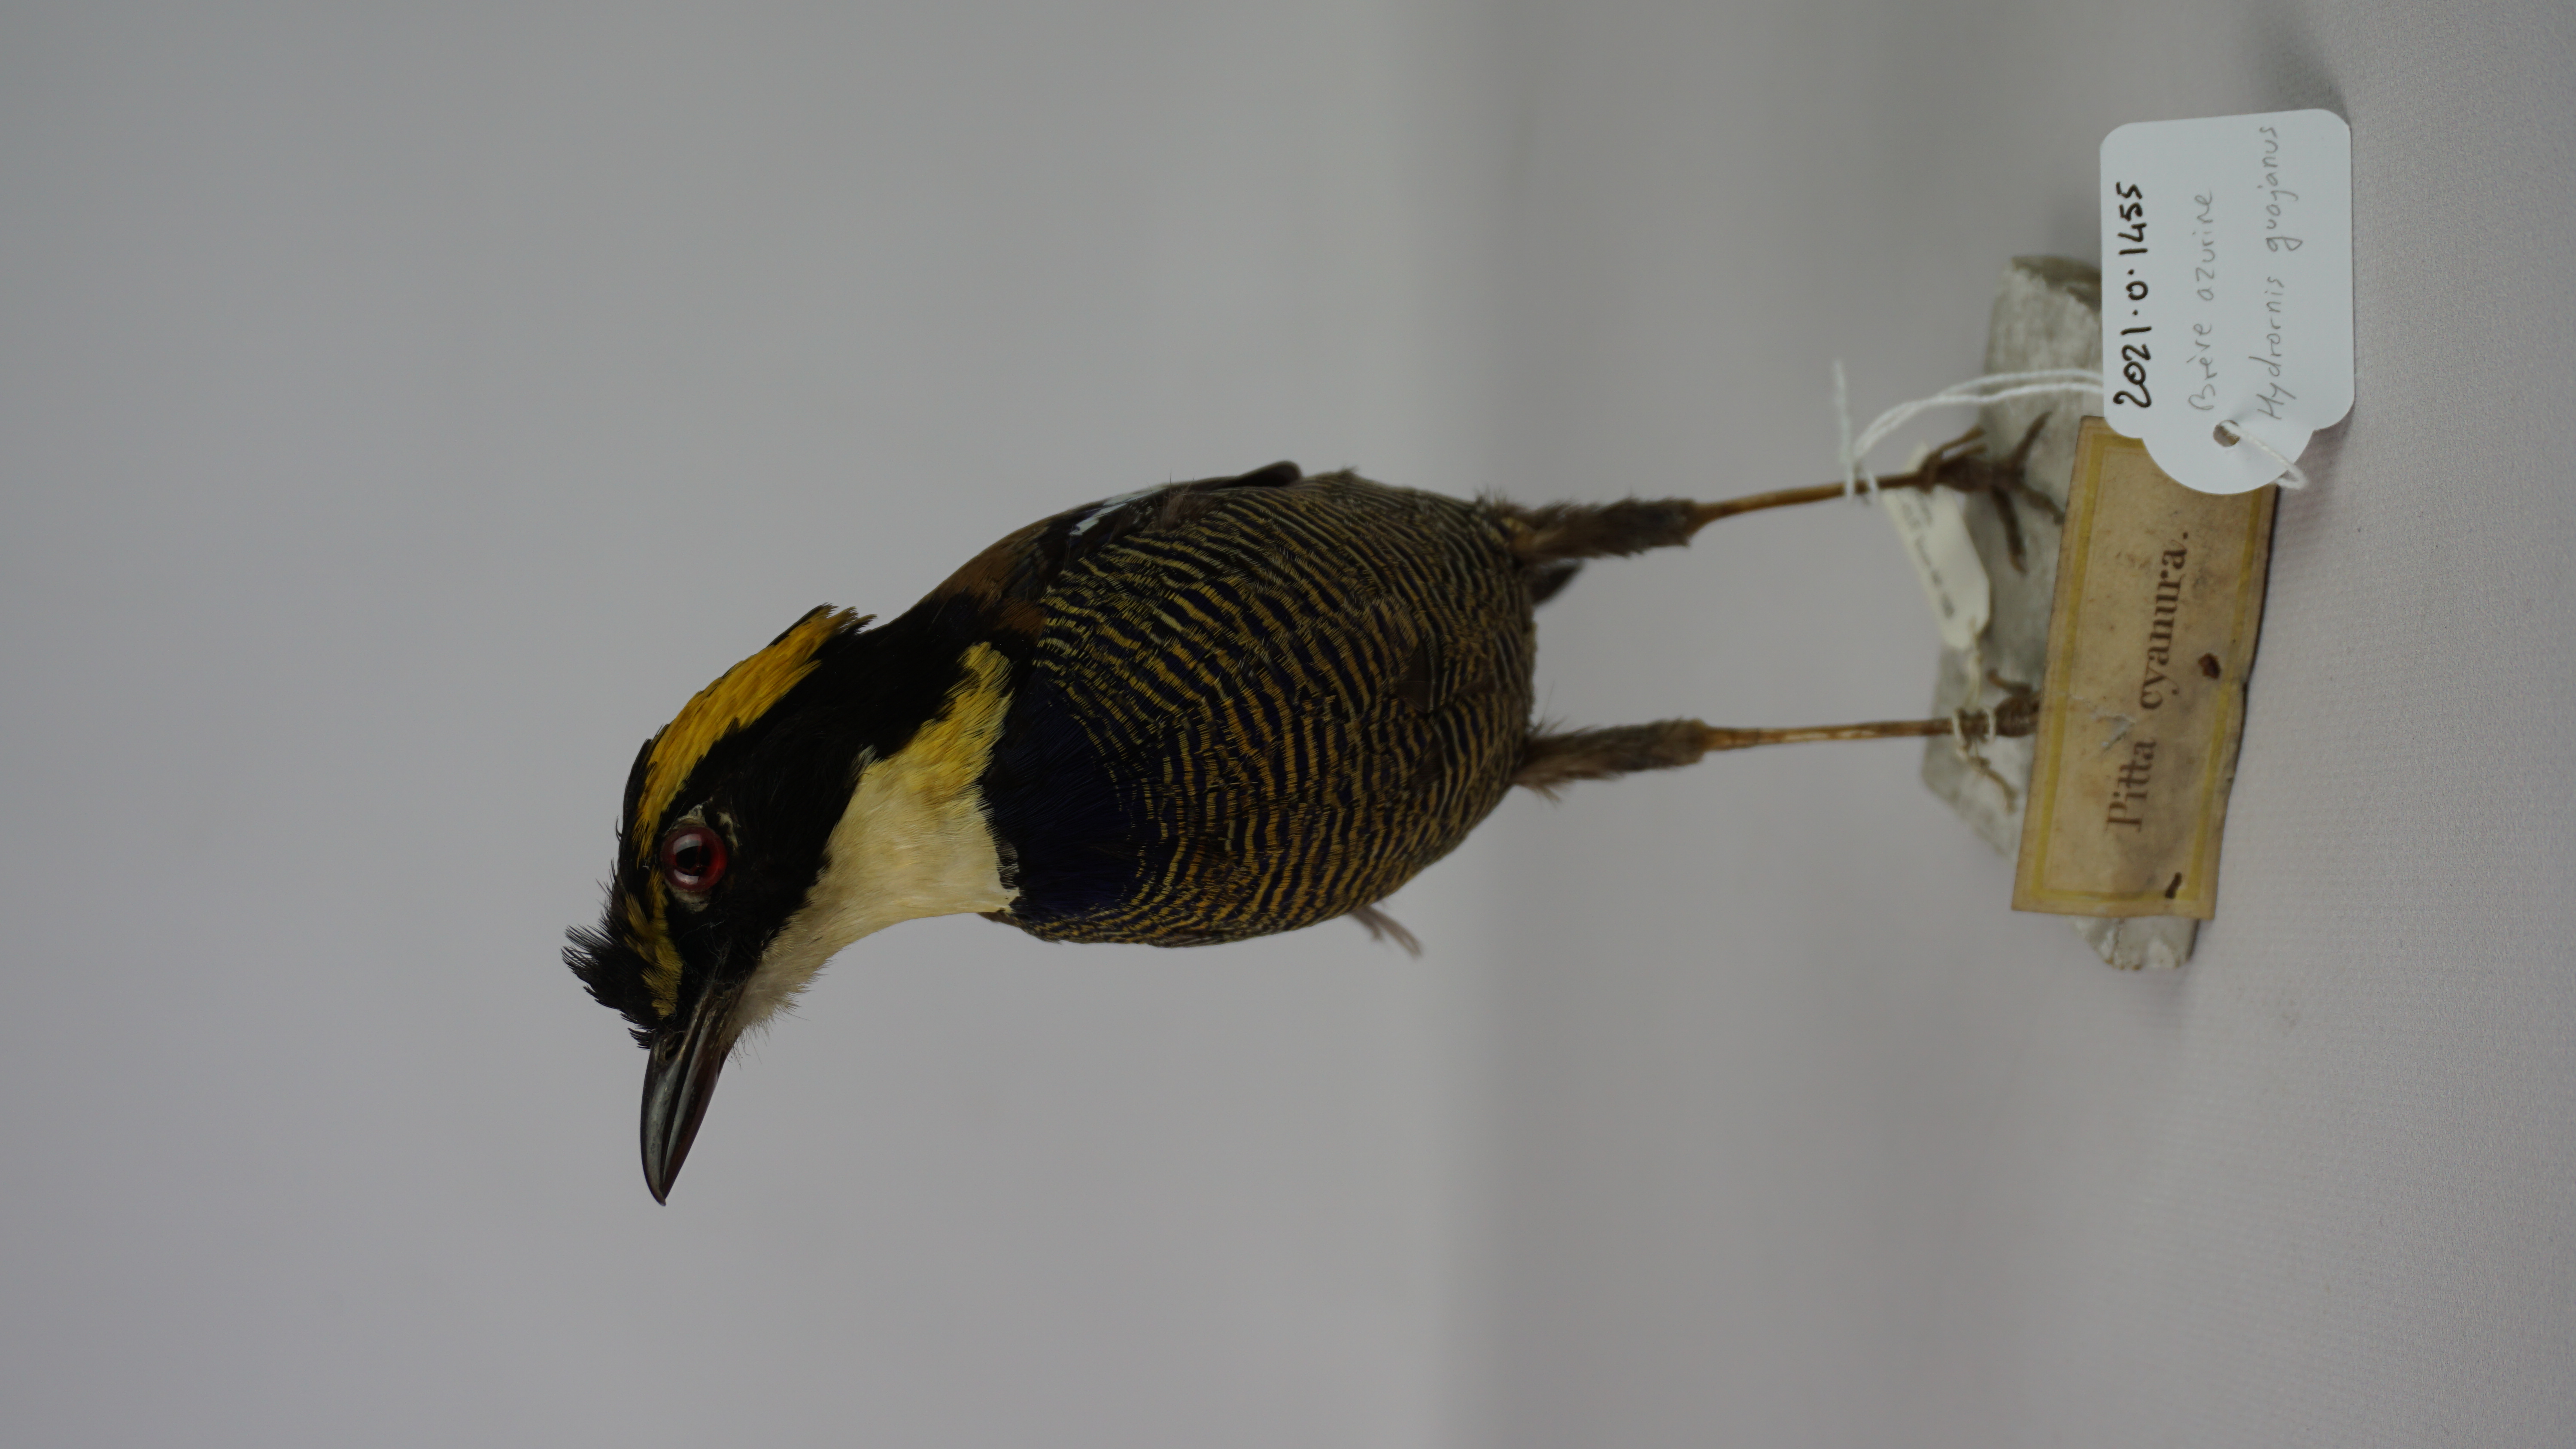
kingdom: Animalia
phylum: Chordata
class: Aves
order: Passeriformes
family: Pittidae
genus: Pitta
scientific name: Pitta guajana
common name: Banded pitta
